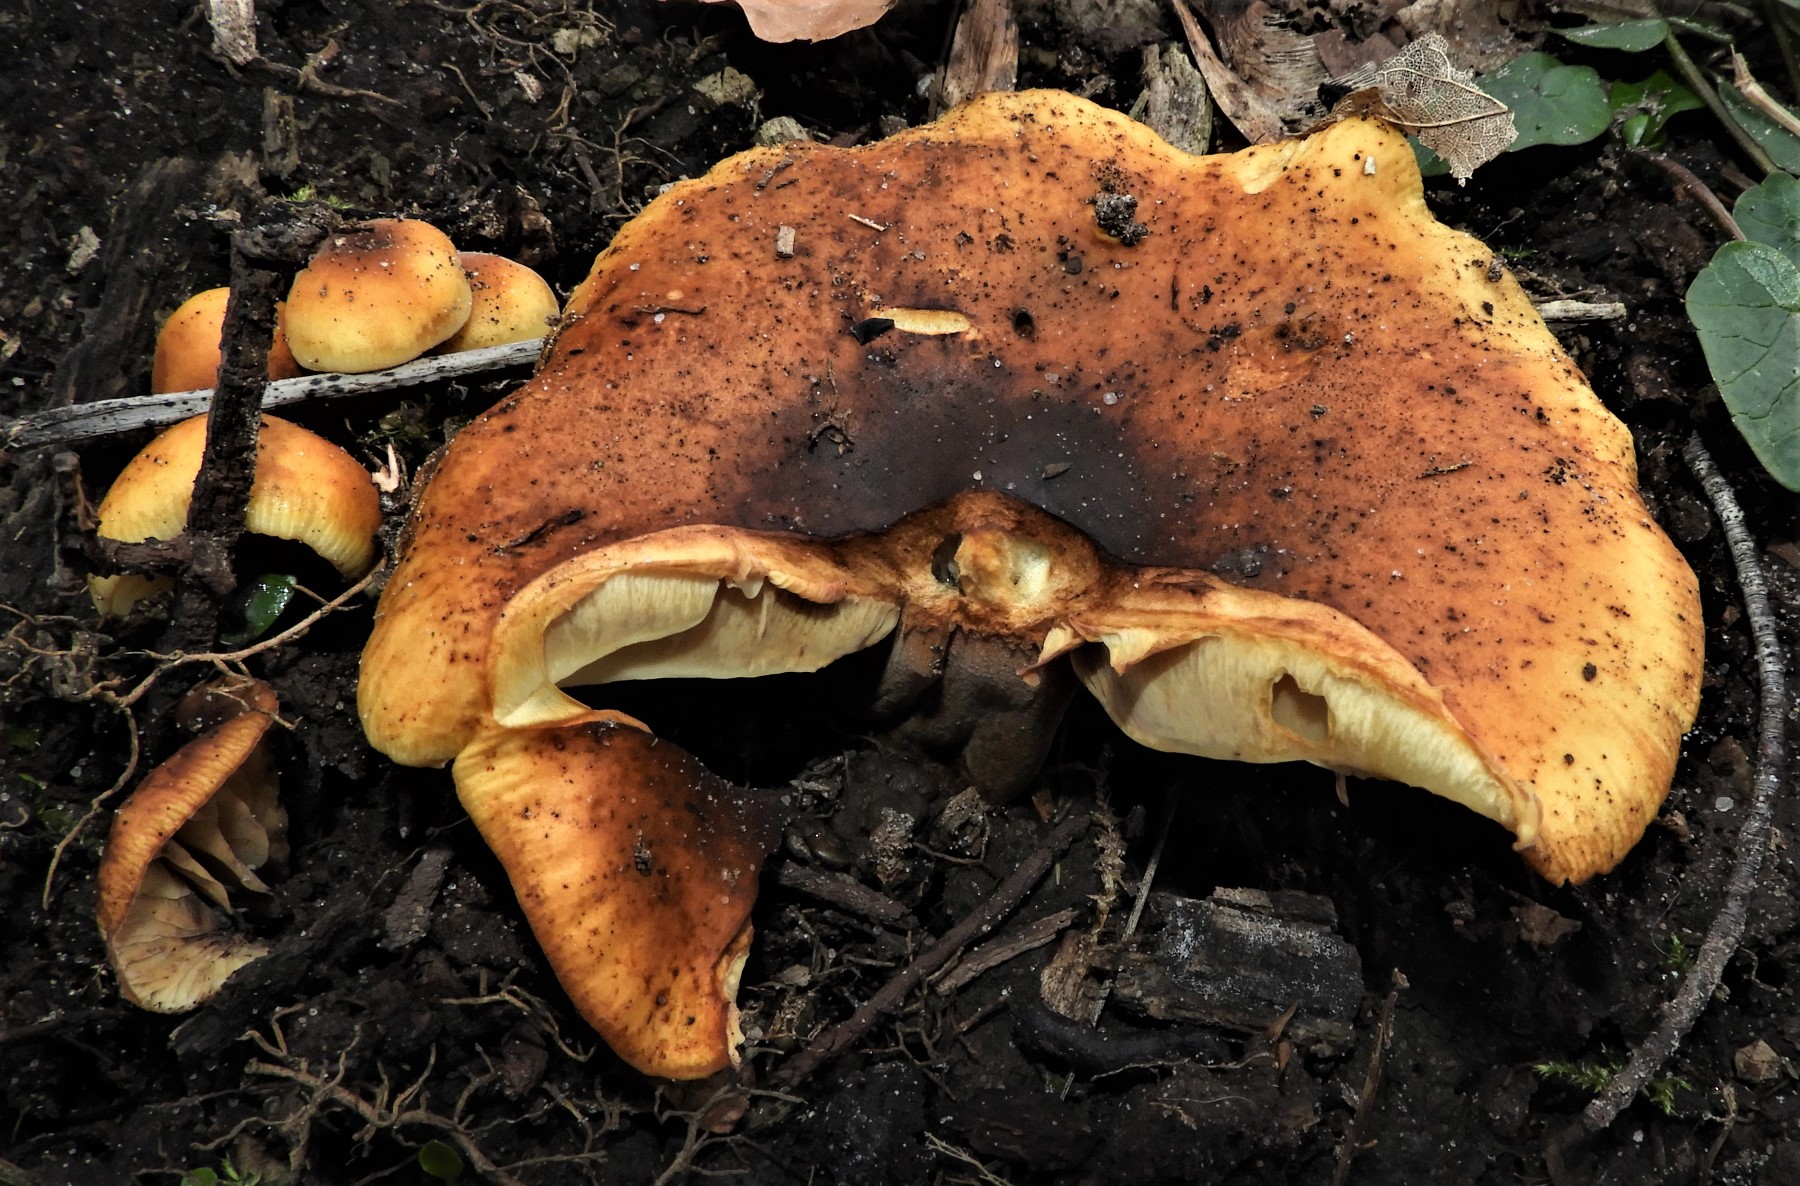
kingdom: Fungi
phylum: Basidiomycota
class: Agaricomycetes
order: Agaricales
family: Physalacriaceae
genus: Flammulina
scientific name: Flammulina
